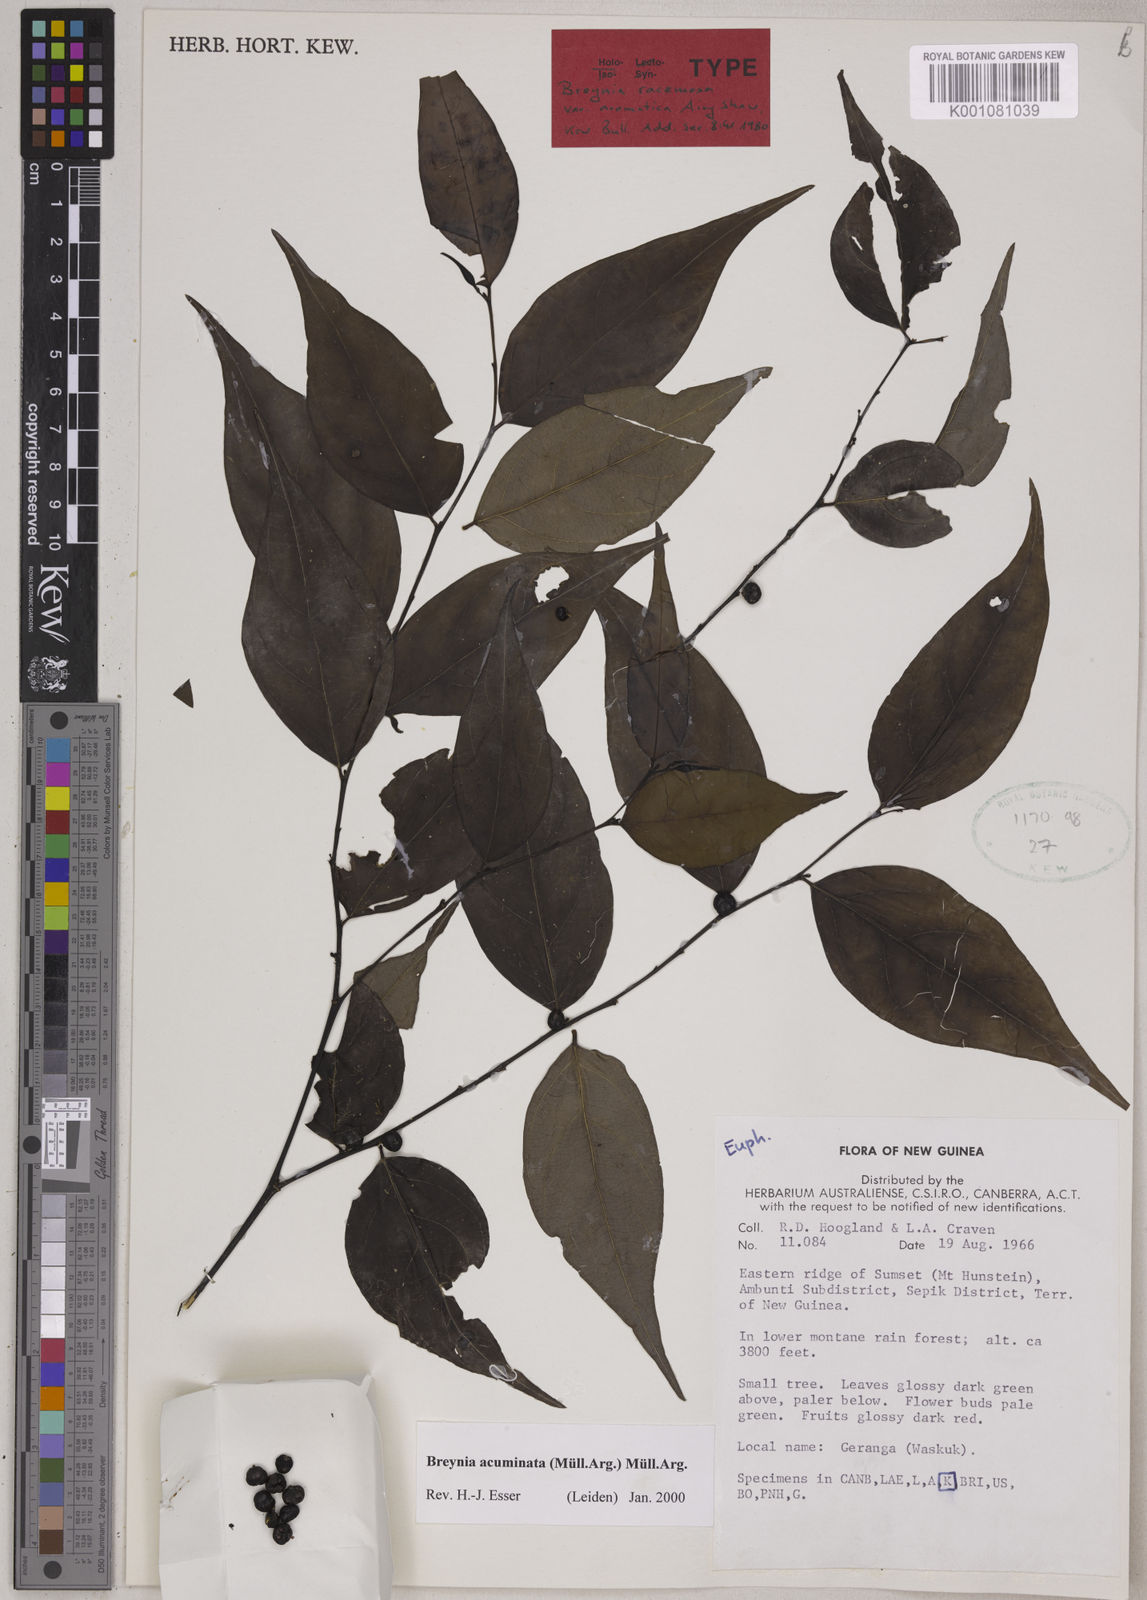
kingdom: Plantae
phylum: Tracheophyta
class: Magnoliopsida
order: Malpighiales
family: Phyllanthaceae
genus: Breynia
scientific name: Breynia
